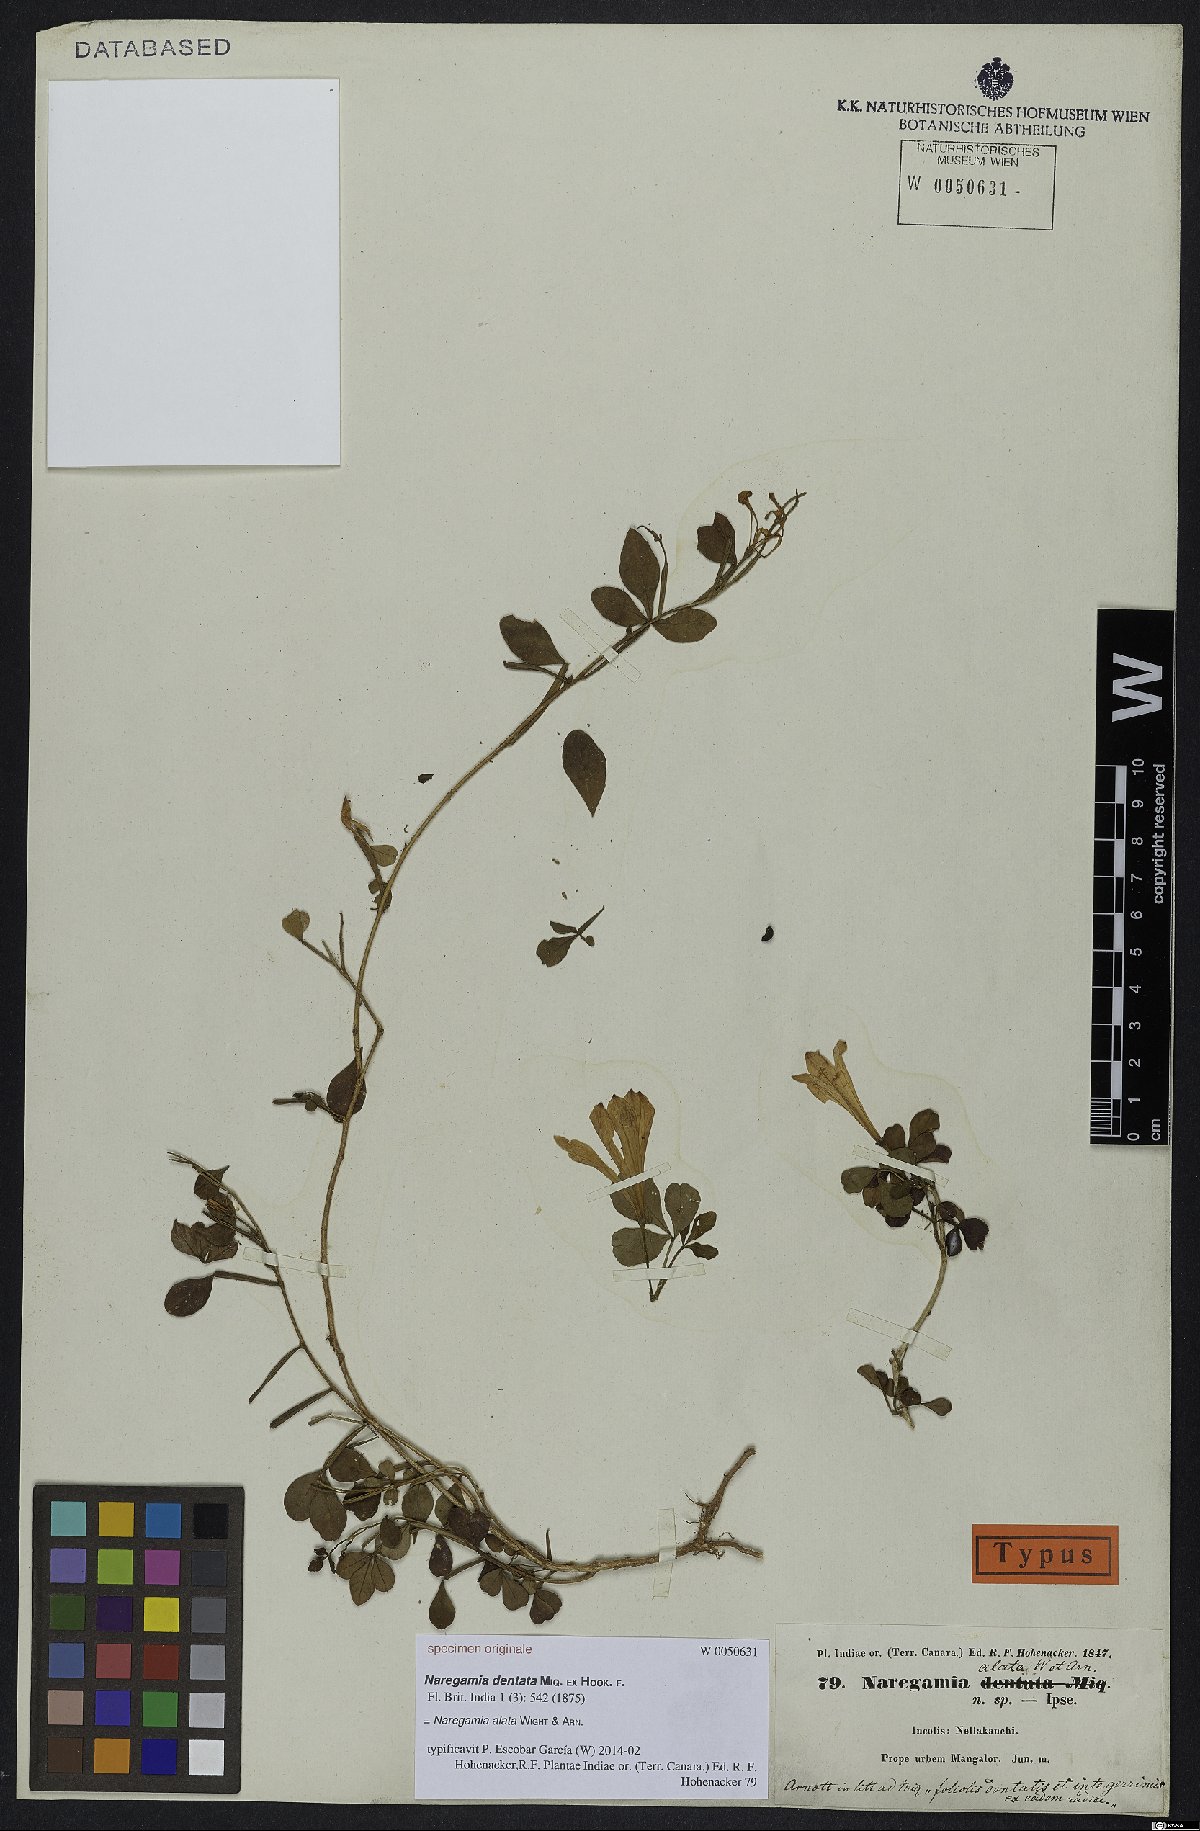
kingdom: Plantae
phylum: Tracheophyta
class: Magnoliopsida
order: Sapindales
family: Meliaceae
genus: Naregamia
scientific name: Naregamia alata
